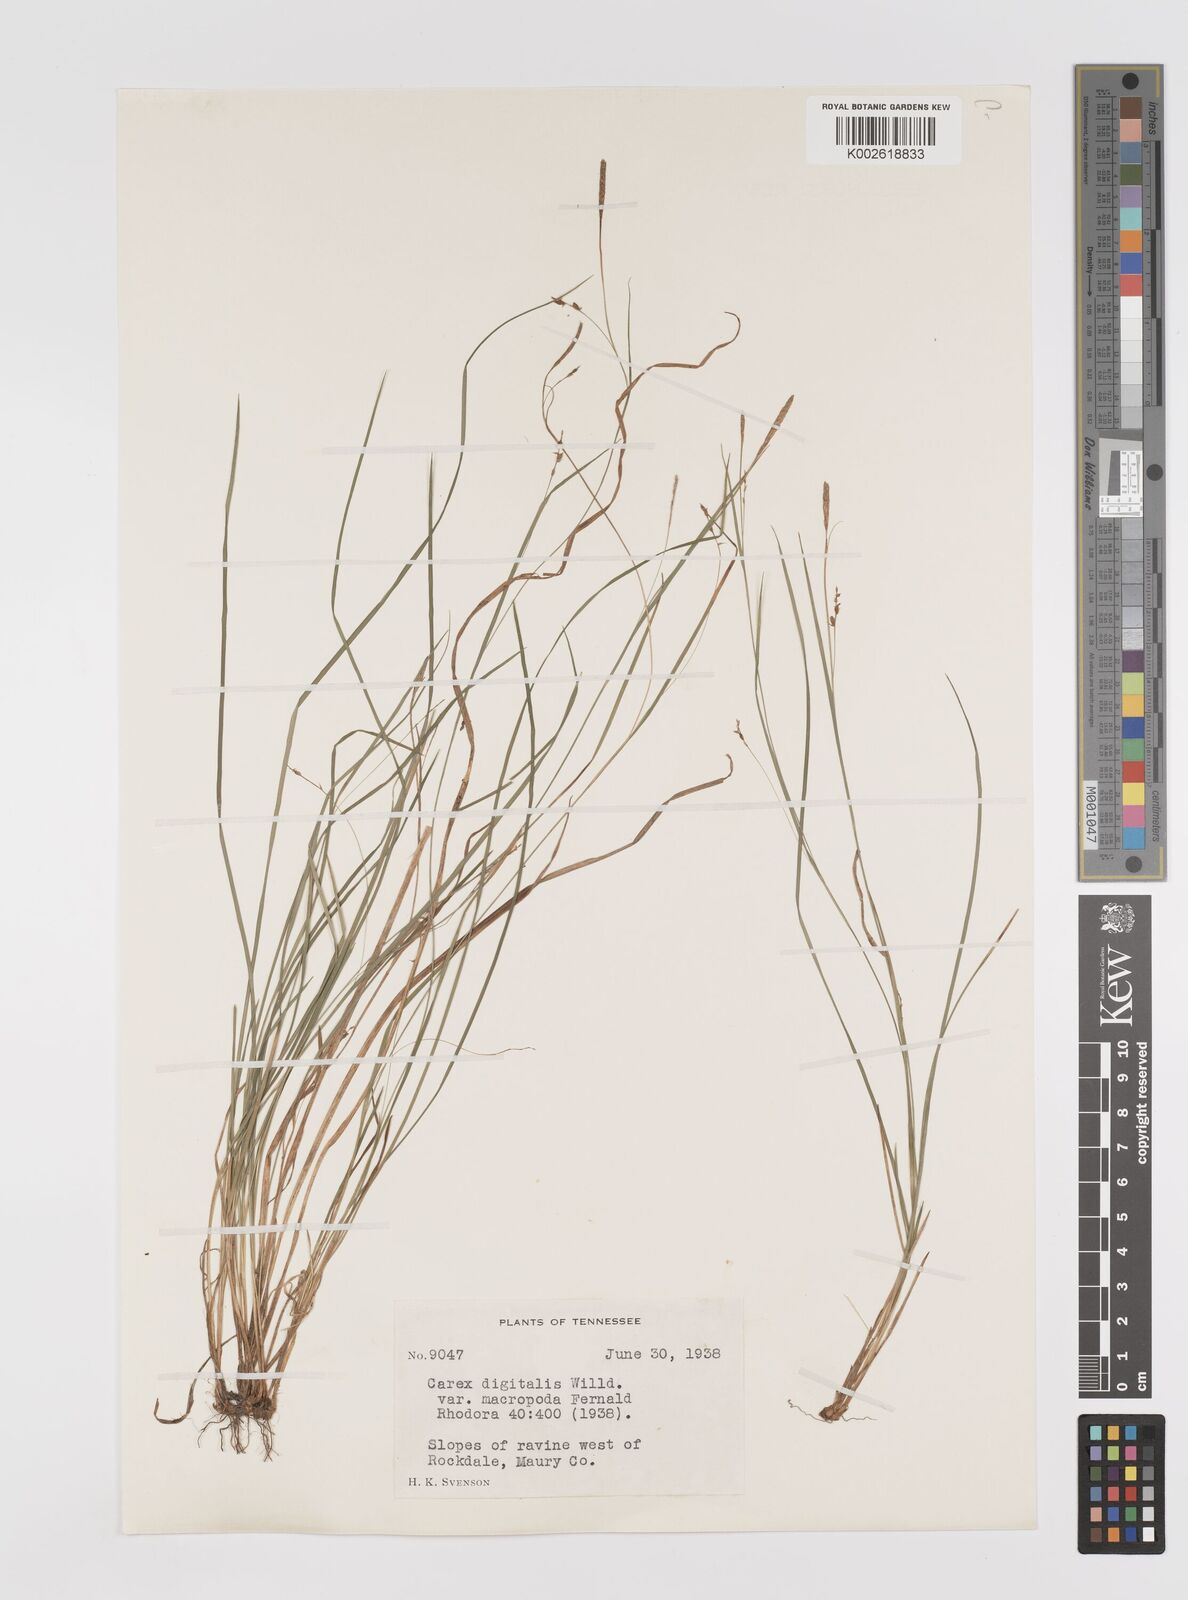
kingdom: Plantae
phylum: Tracheophyta
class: Liliopsida
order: Poales
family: Cyperaceae
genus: Carex
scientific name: Carex digitalis
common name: Slender wood sedge
